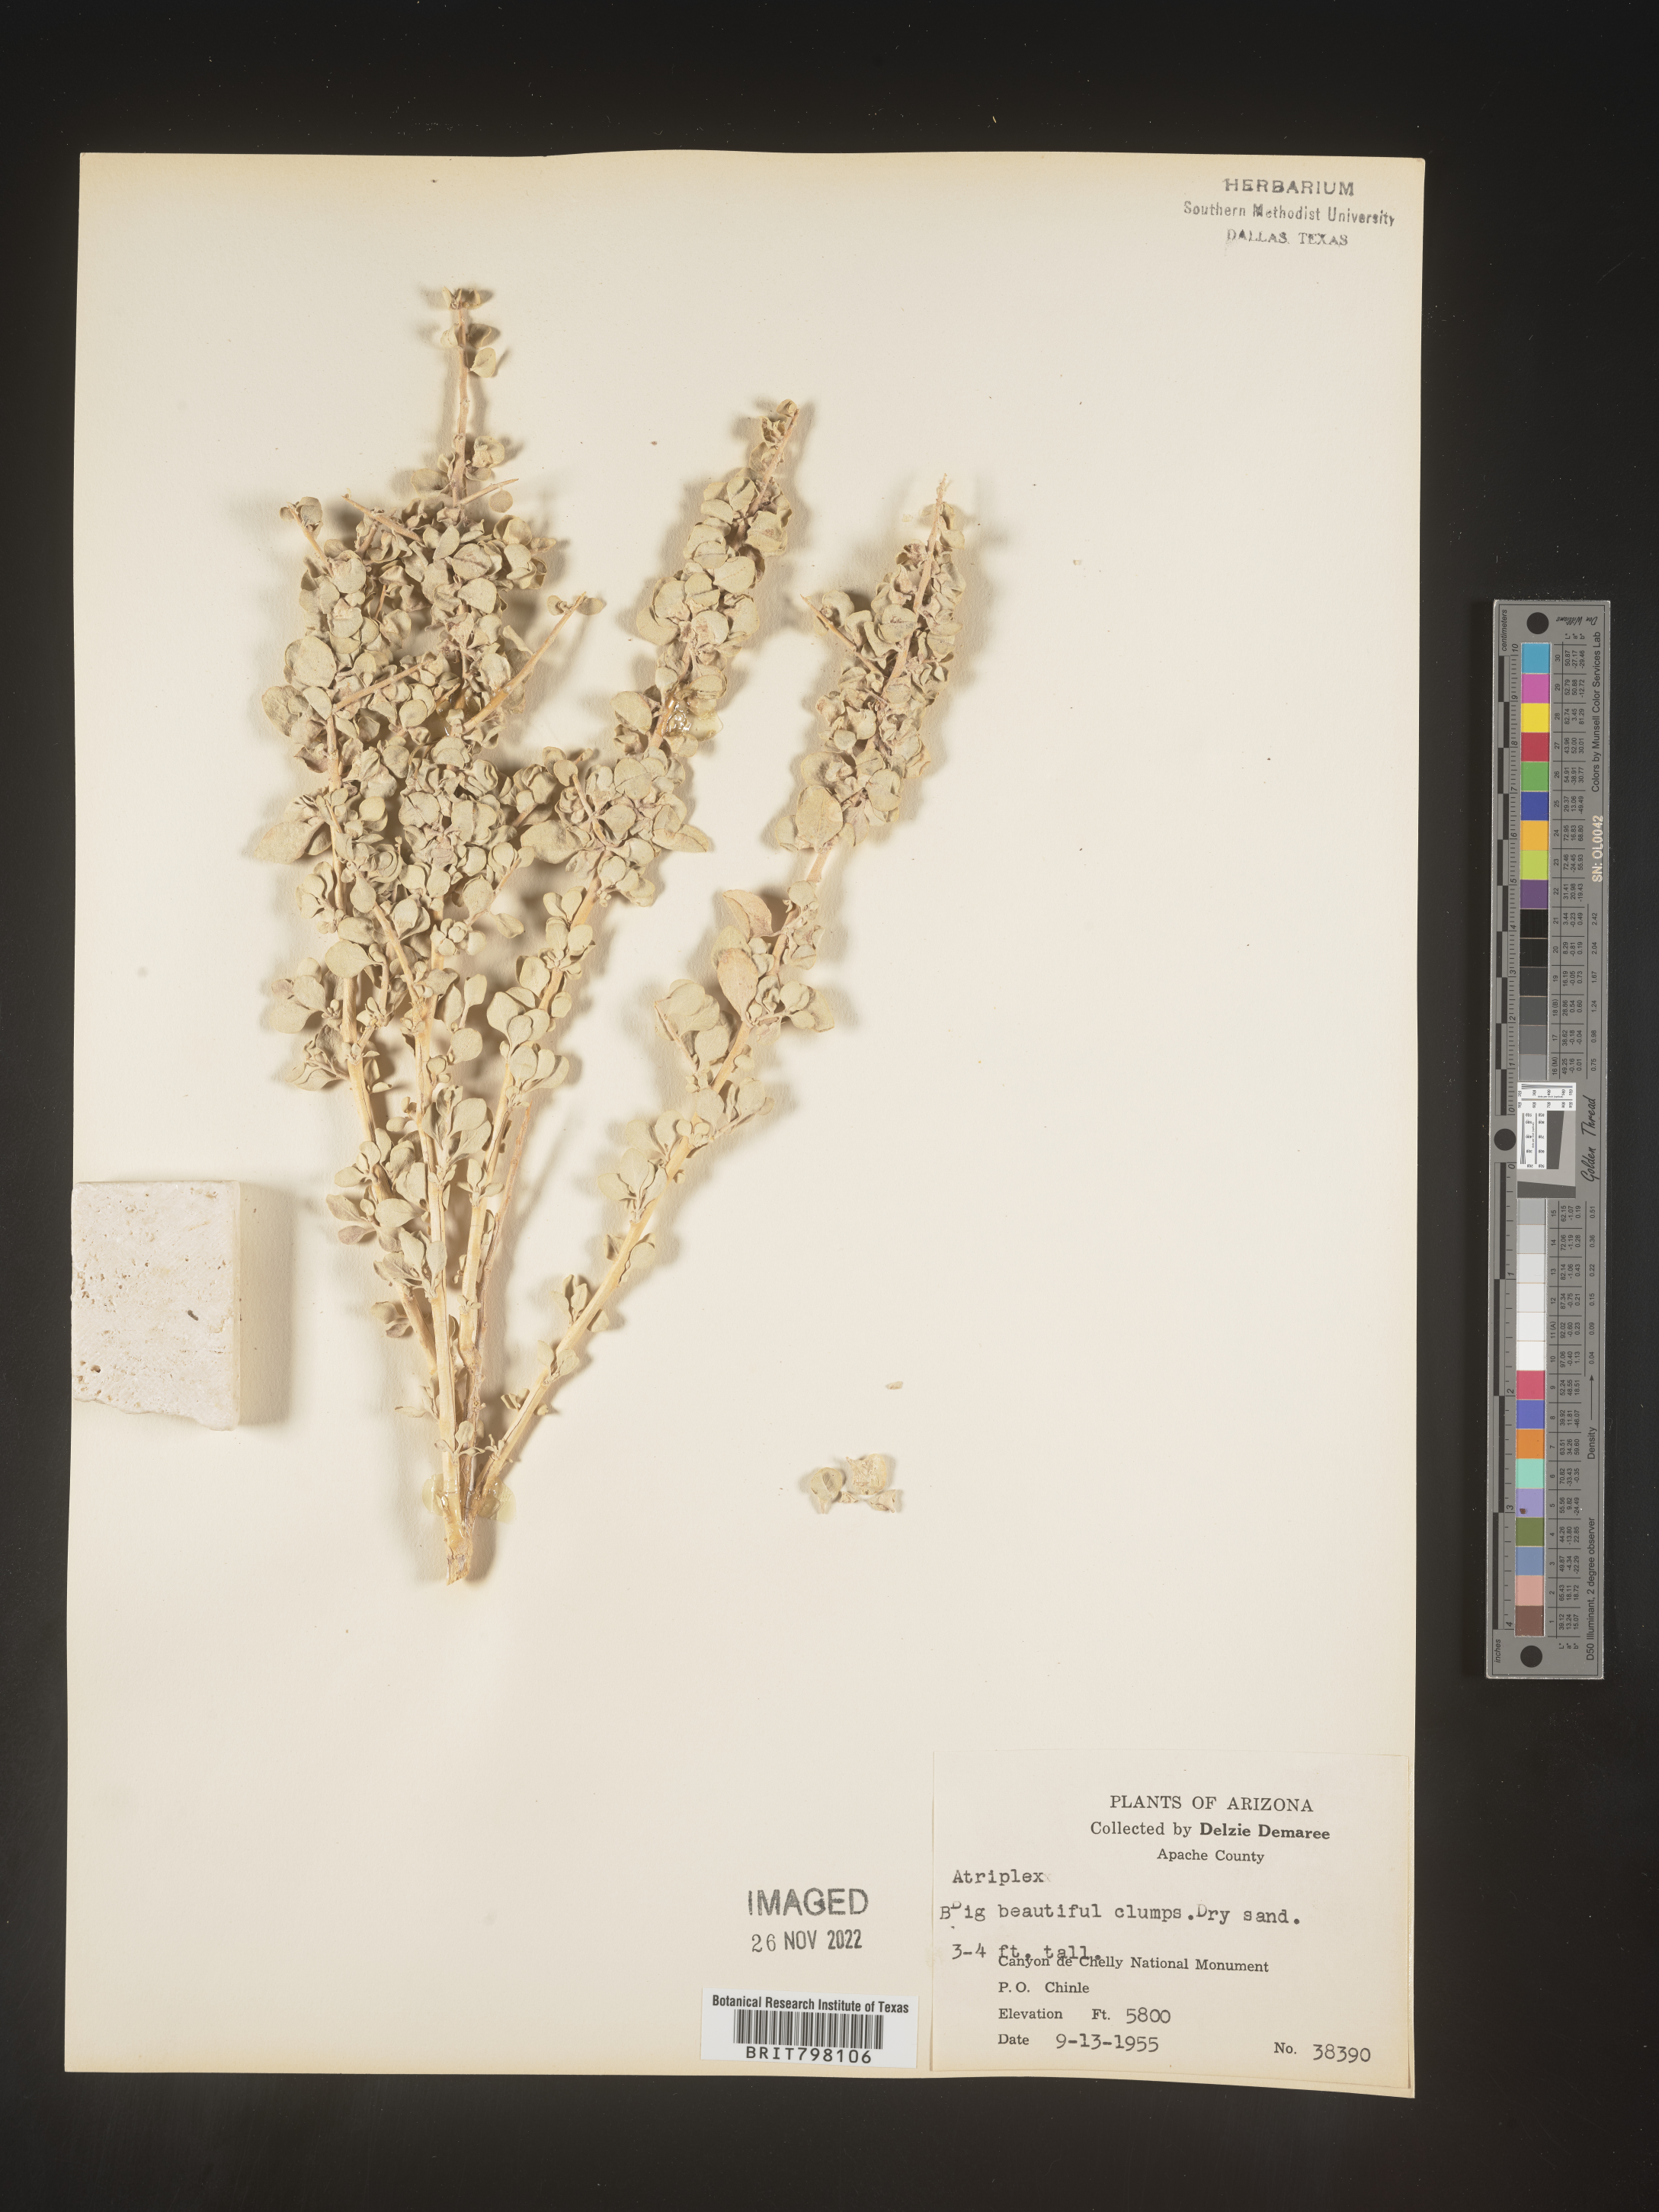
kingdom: Plantae
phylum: Tracheophyta
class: Magnoliopsida
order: Caryophyllales
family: Amaranthaceae
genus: Atriplex
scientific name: Atriplex
